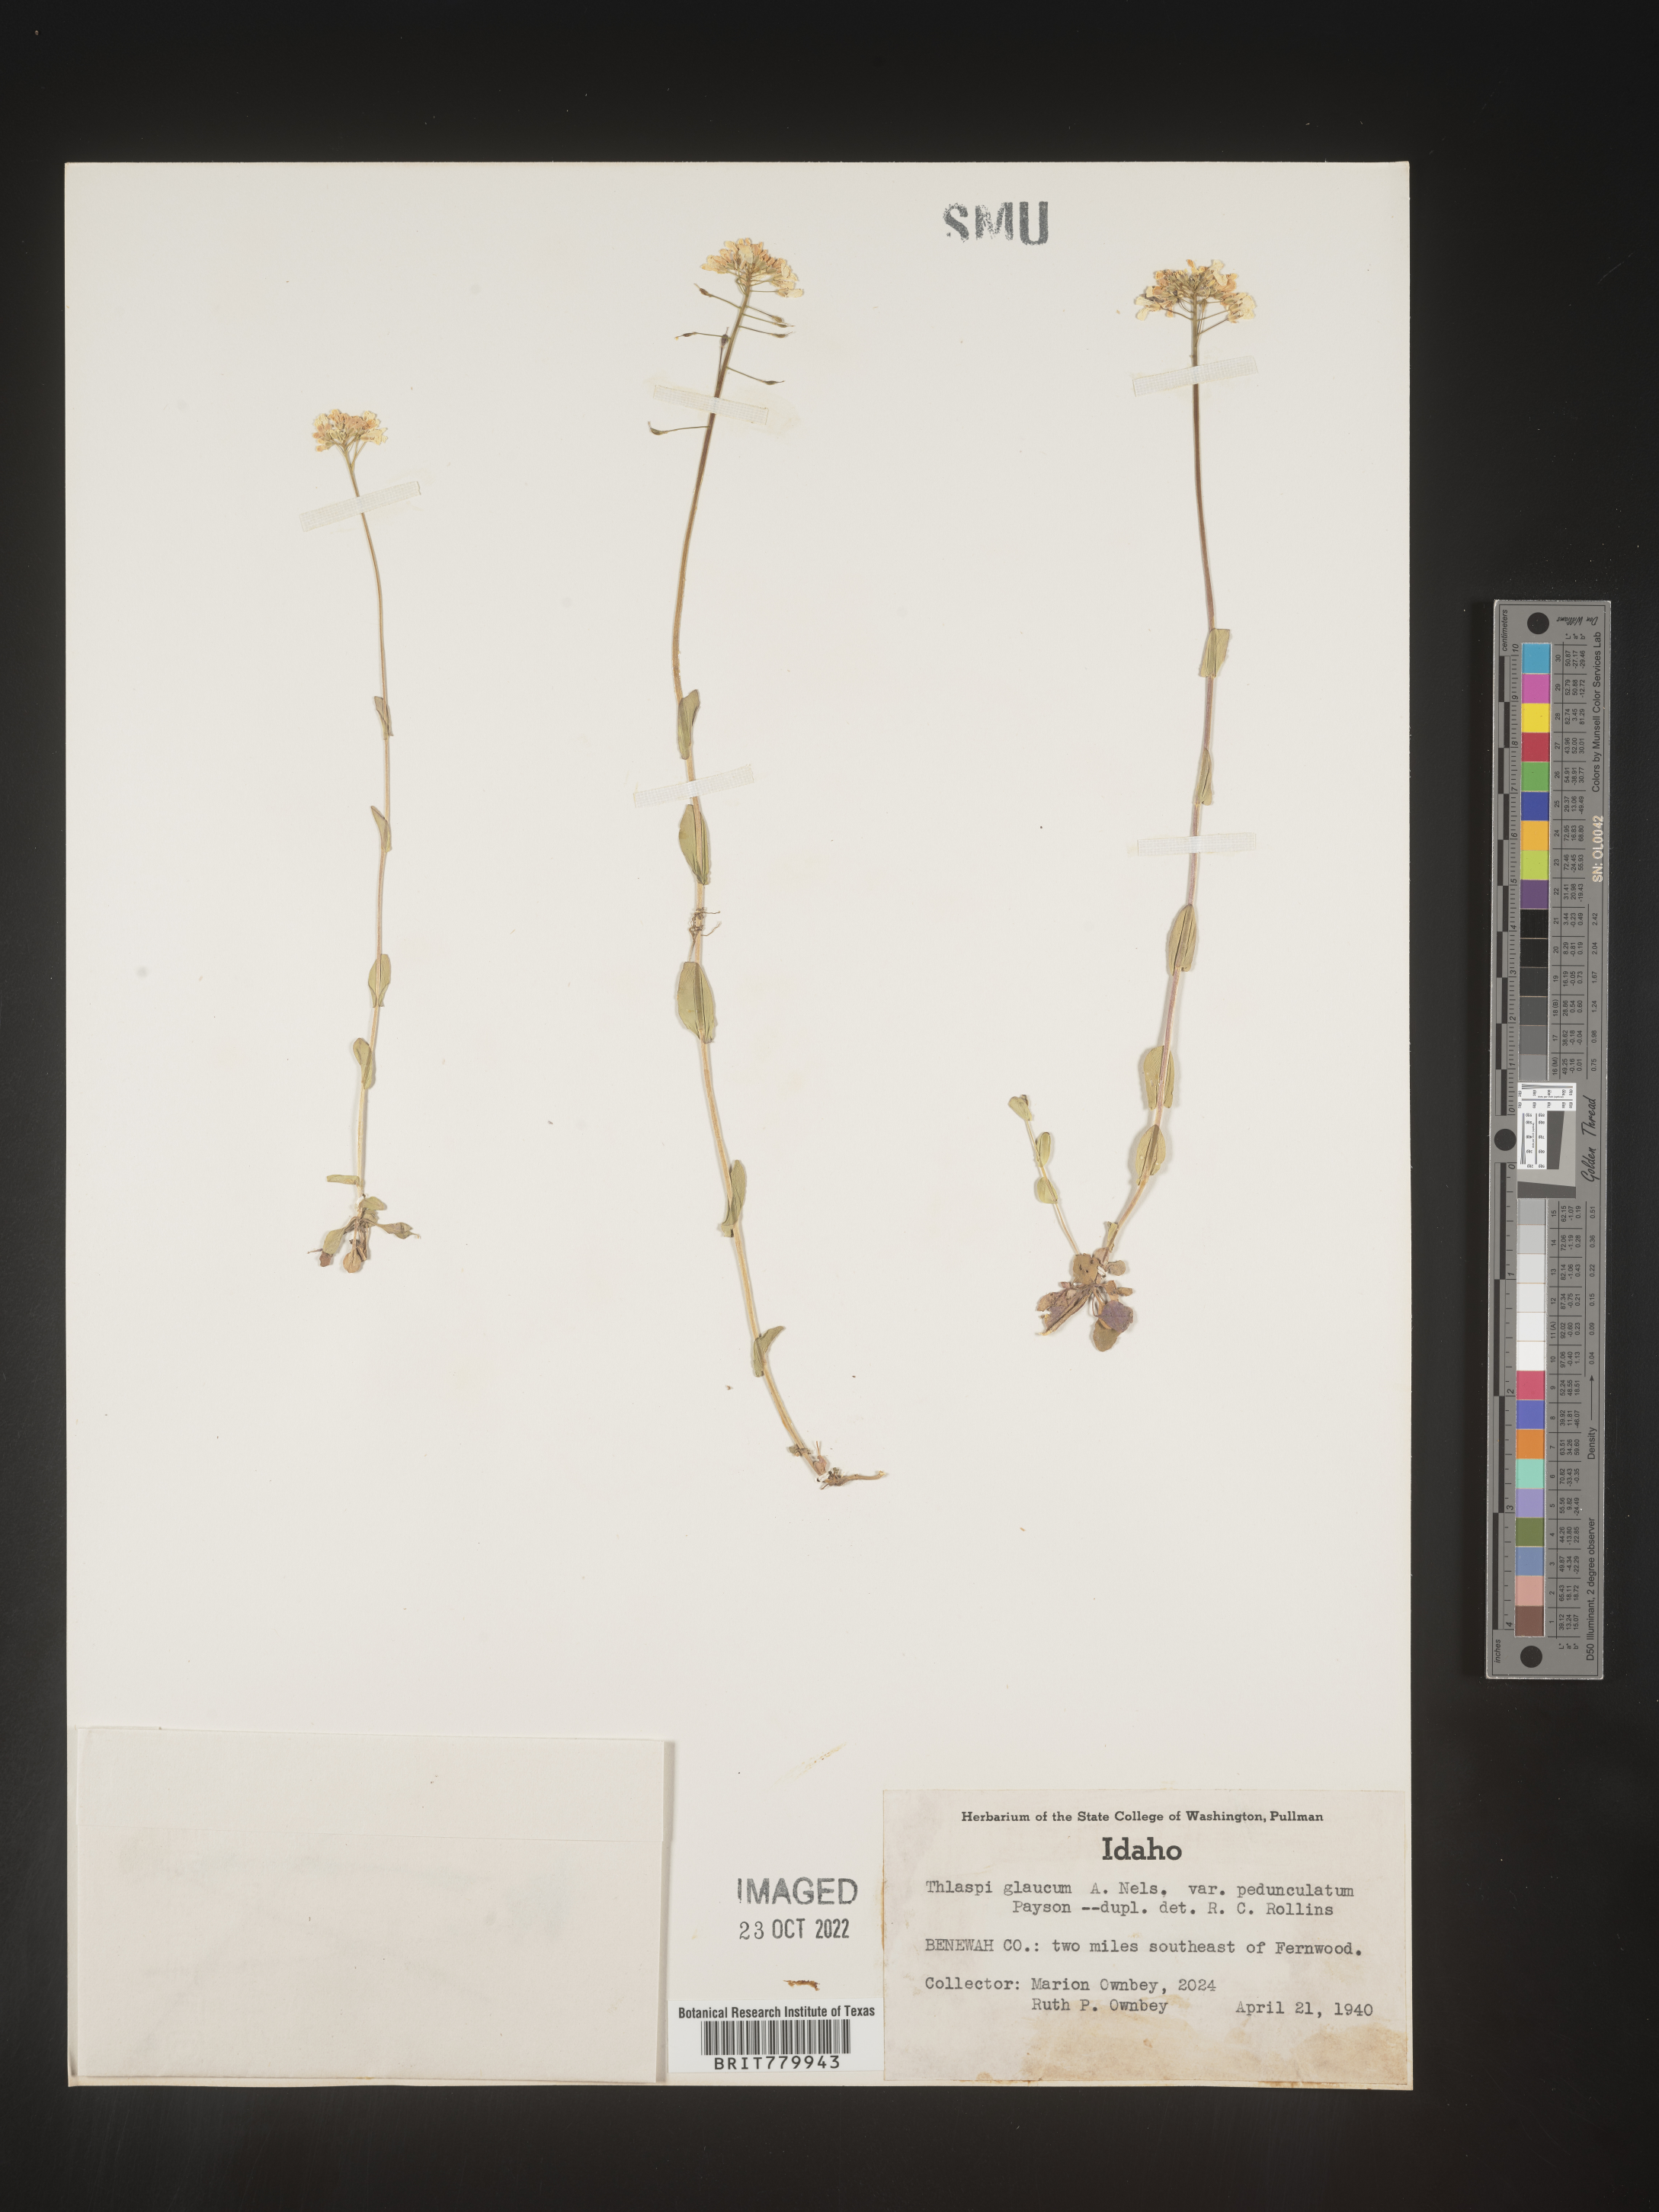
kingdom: Plantae
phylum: Tracheophyta
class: Magnoliopsida
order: Brassicales
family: Brassicaceae
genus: Thlaspi
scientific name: Thlaspi
